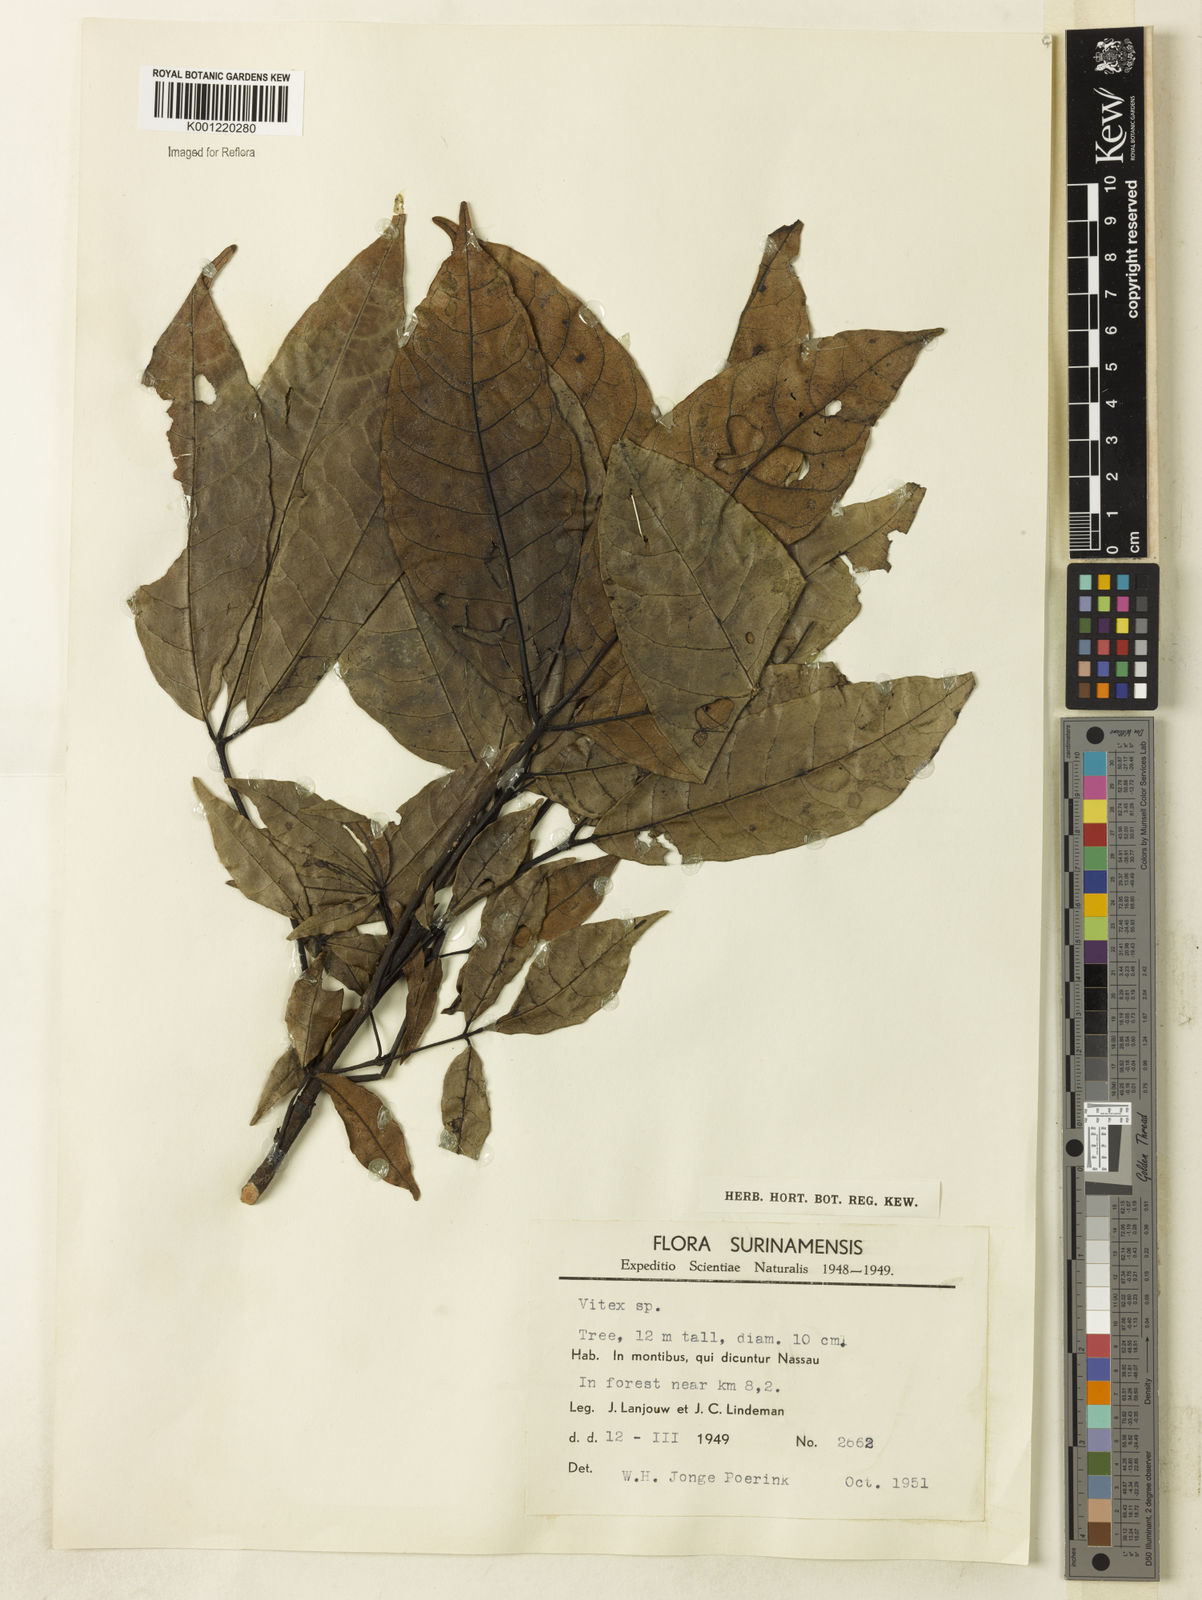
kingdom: Plantae
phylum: Tracheophyta
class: Magnoliopsida
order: Lamiales
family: Lamiaceae
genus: Vitex
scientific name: Vitex
